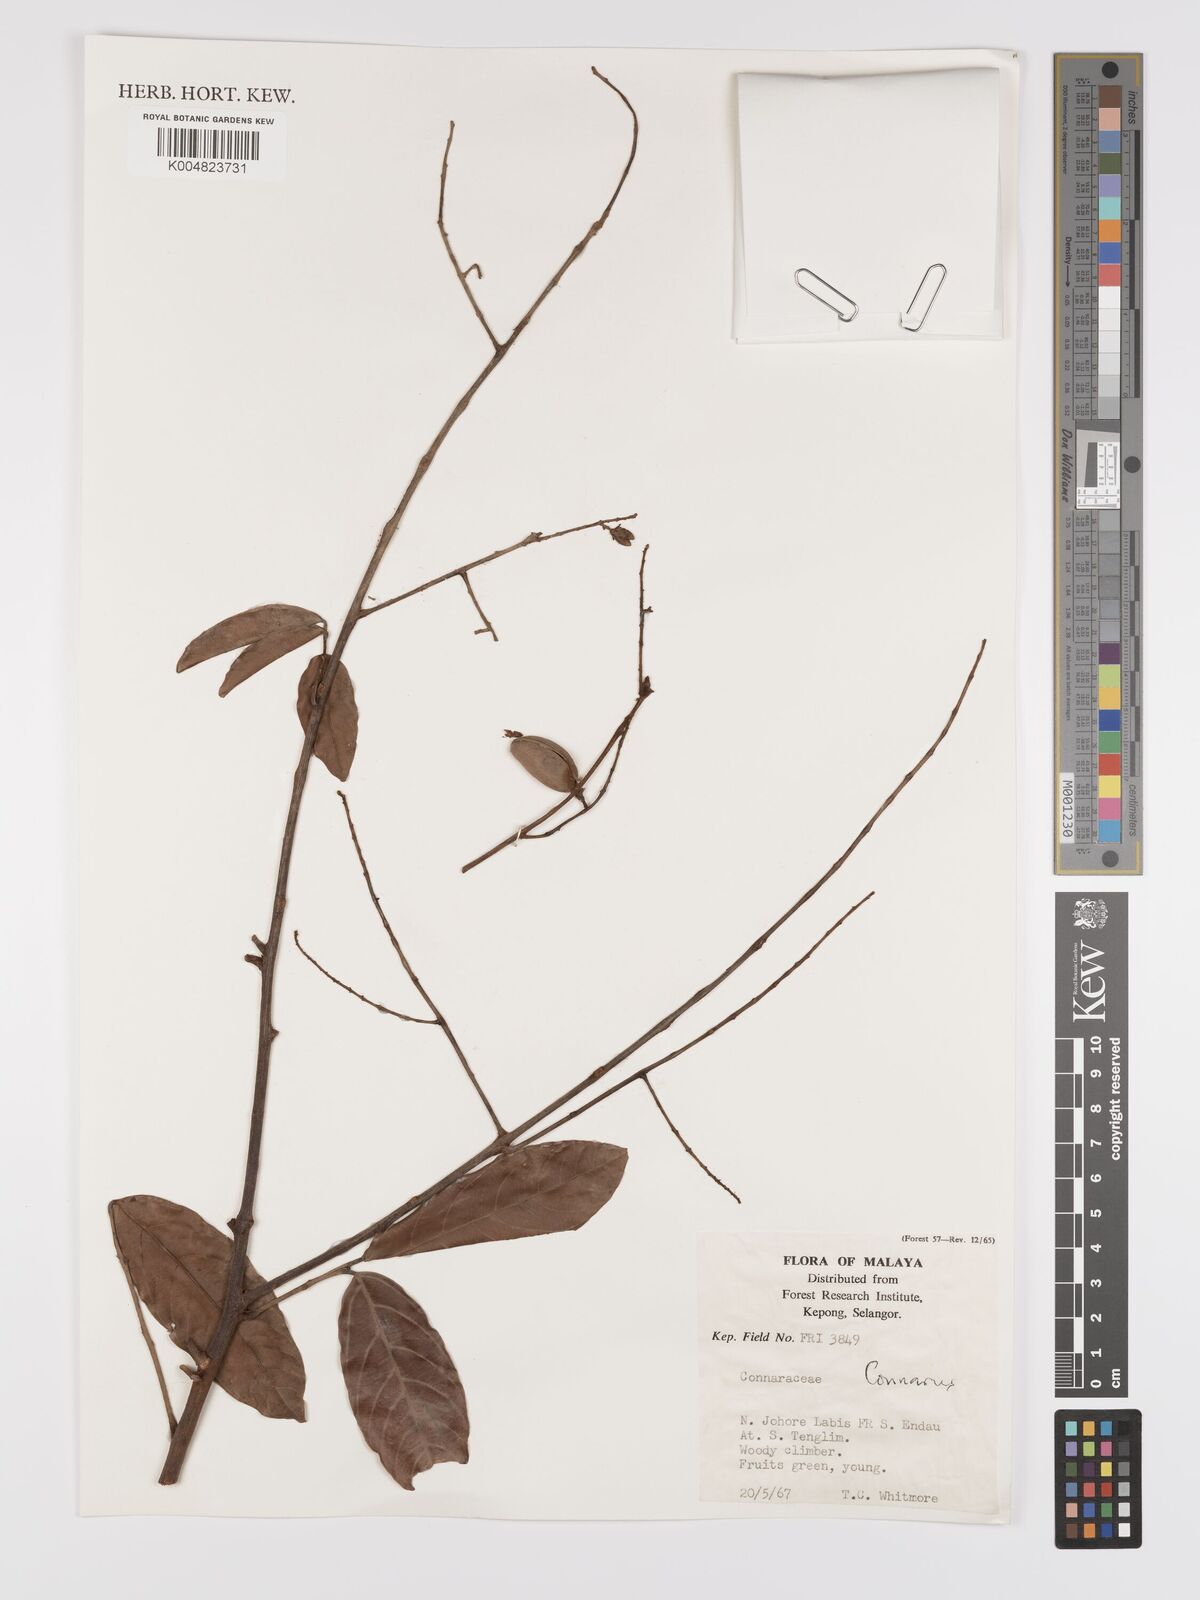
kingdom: Plantae
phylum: Tracheophyta
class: Magnoliopsida
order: Oxalidales
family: Connaraceae
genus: Connarus
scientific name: Connarus
